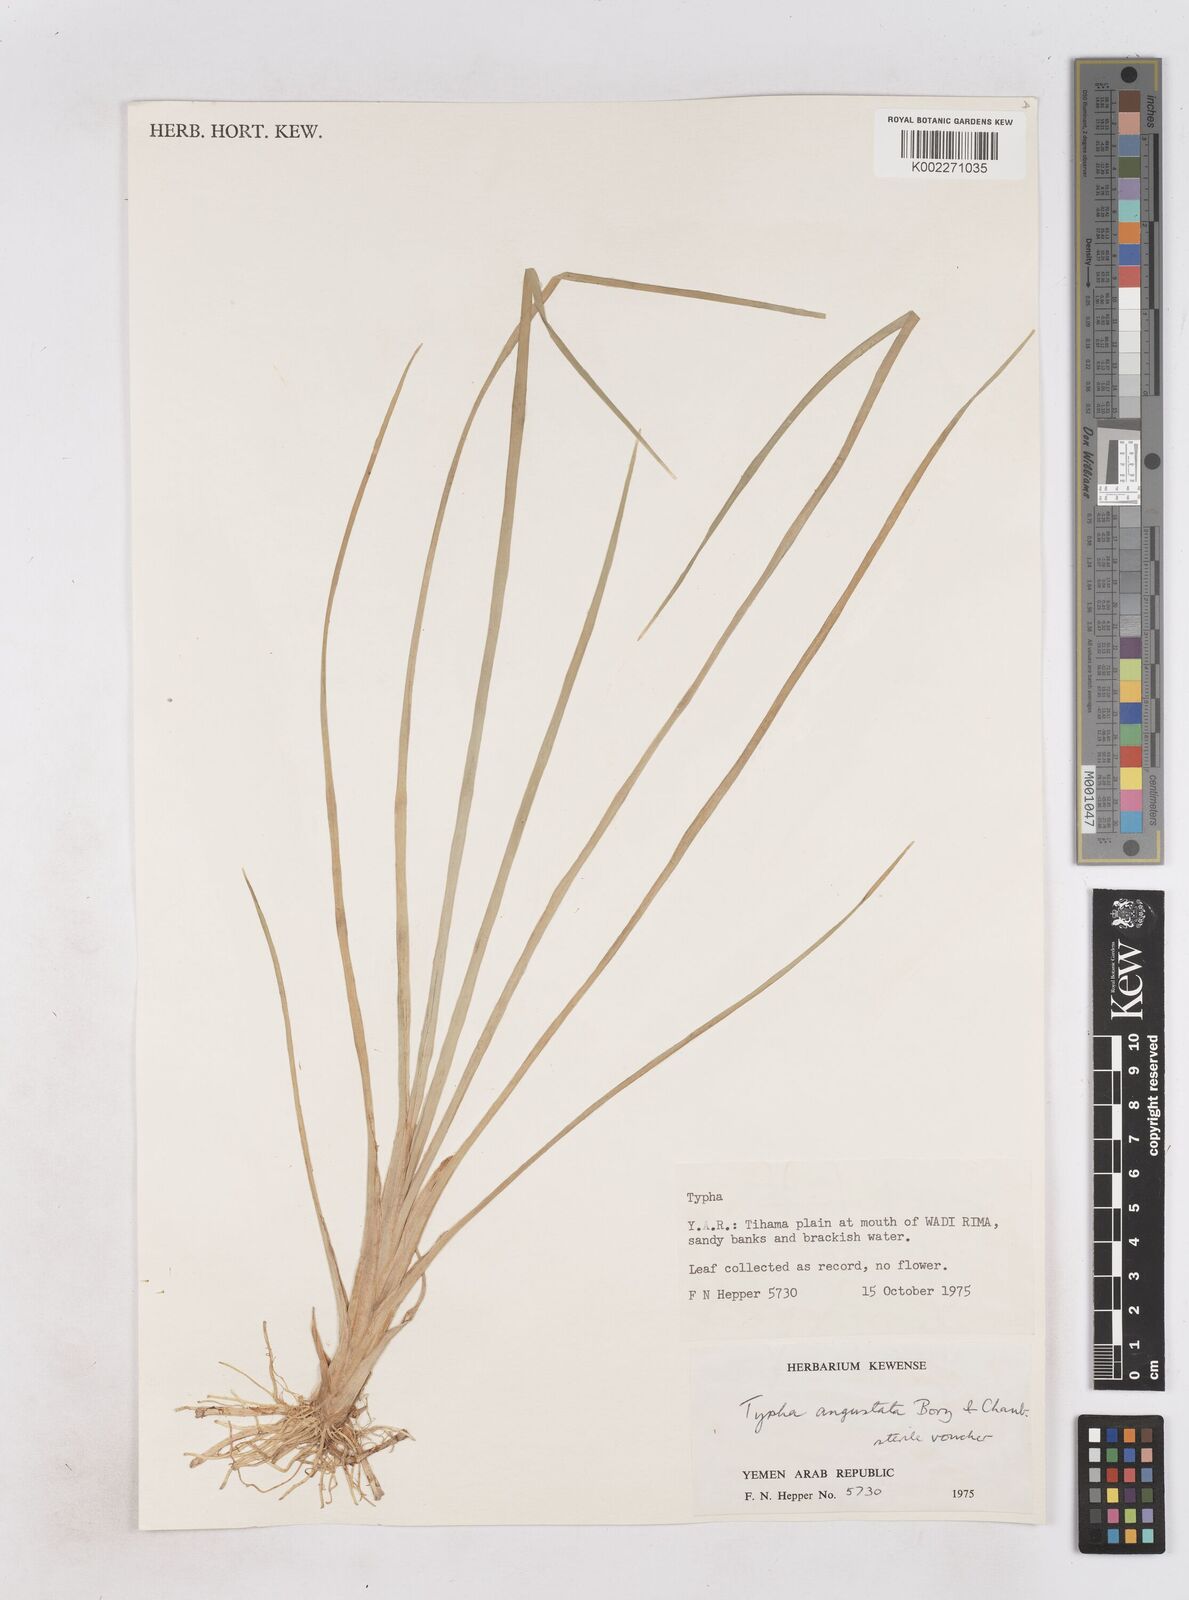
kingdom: Plantae
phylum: Tracheophyta
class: Liliopsida
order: Poales
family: Typhaceae
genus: Typha
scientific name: Typha domingensis
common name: Southern cattail
